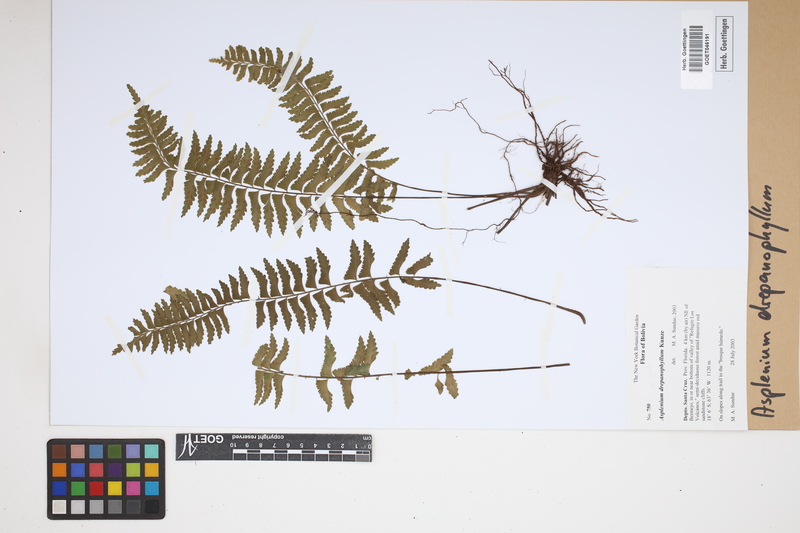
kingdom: Plantae
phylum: Tracheophyta
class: Polypodiopsida
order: Polypodiales
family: Aspleniaceae
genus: Asplenium
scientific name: Asplenium drepanophyllum
